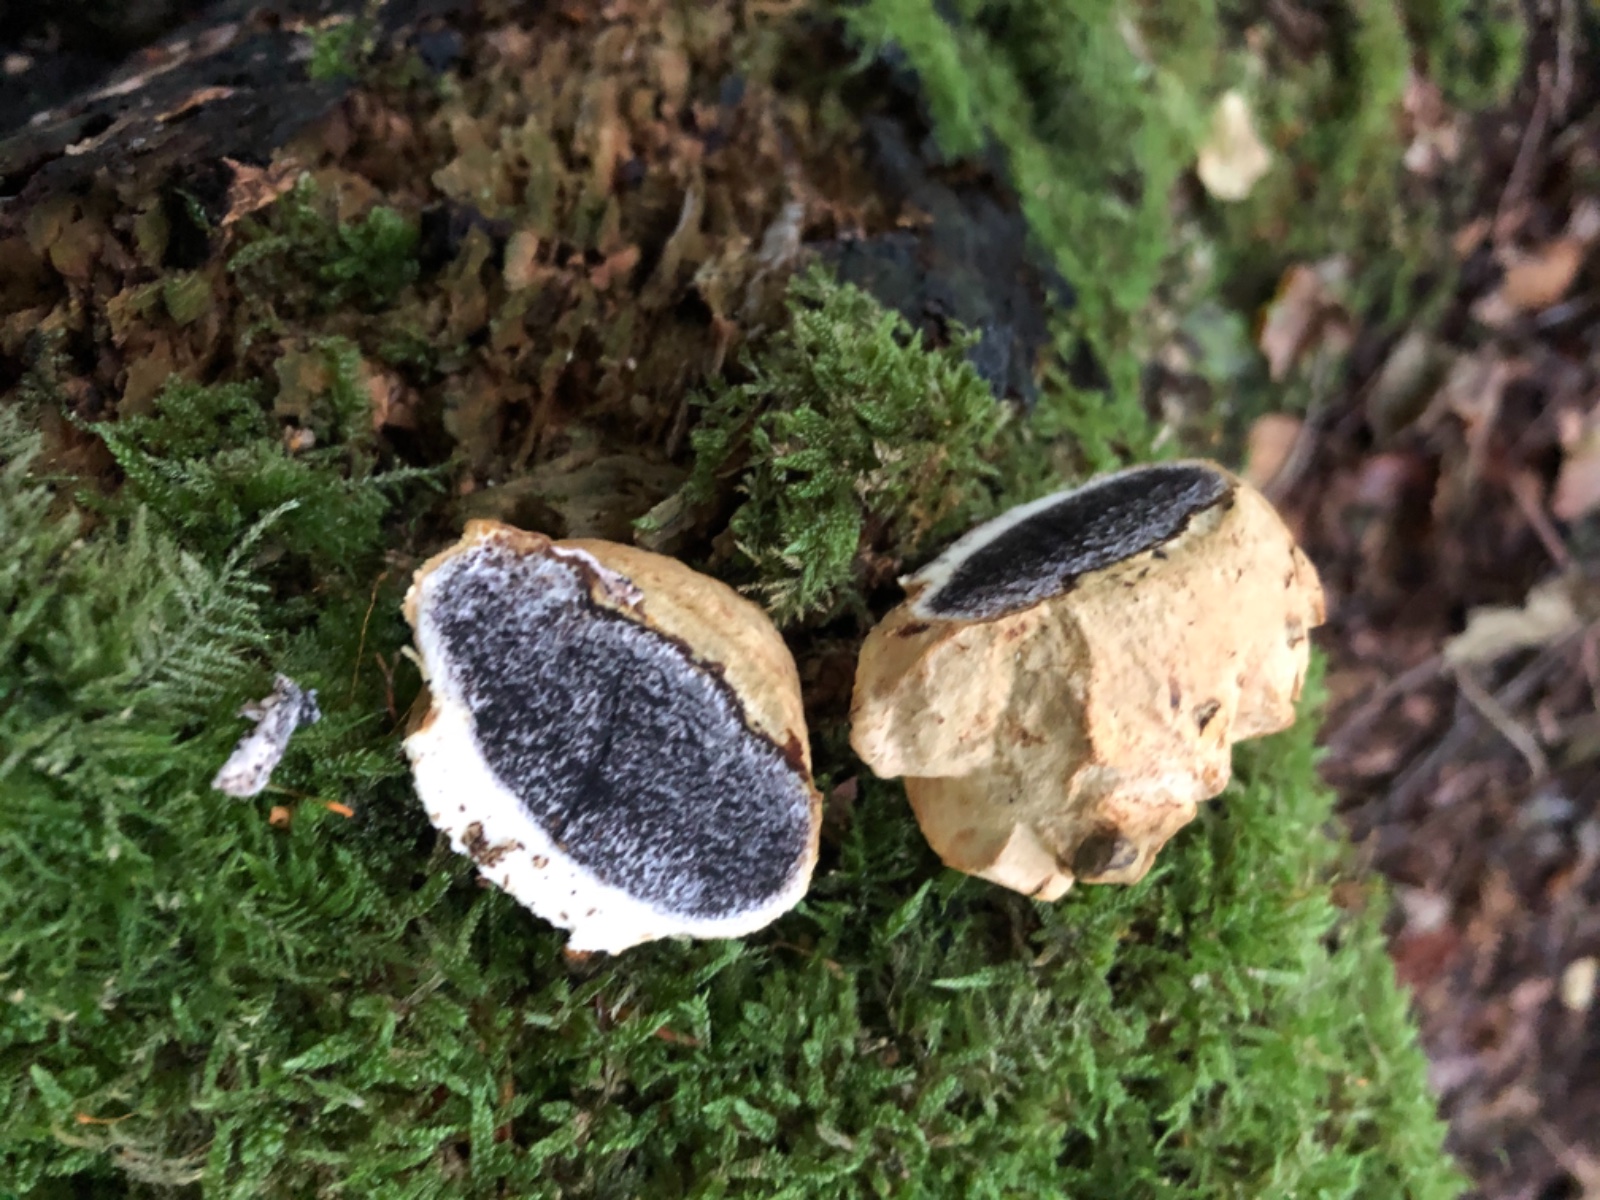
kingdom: Fungi
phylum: Basidiomycota
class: Agaricomycetes
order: Boletales
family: Sclerodermataceae
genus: Scleroderma
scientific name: Scleroderma
